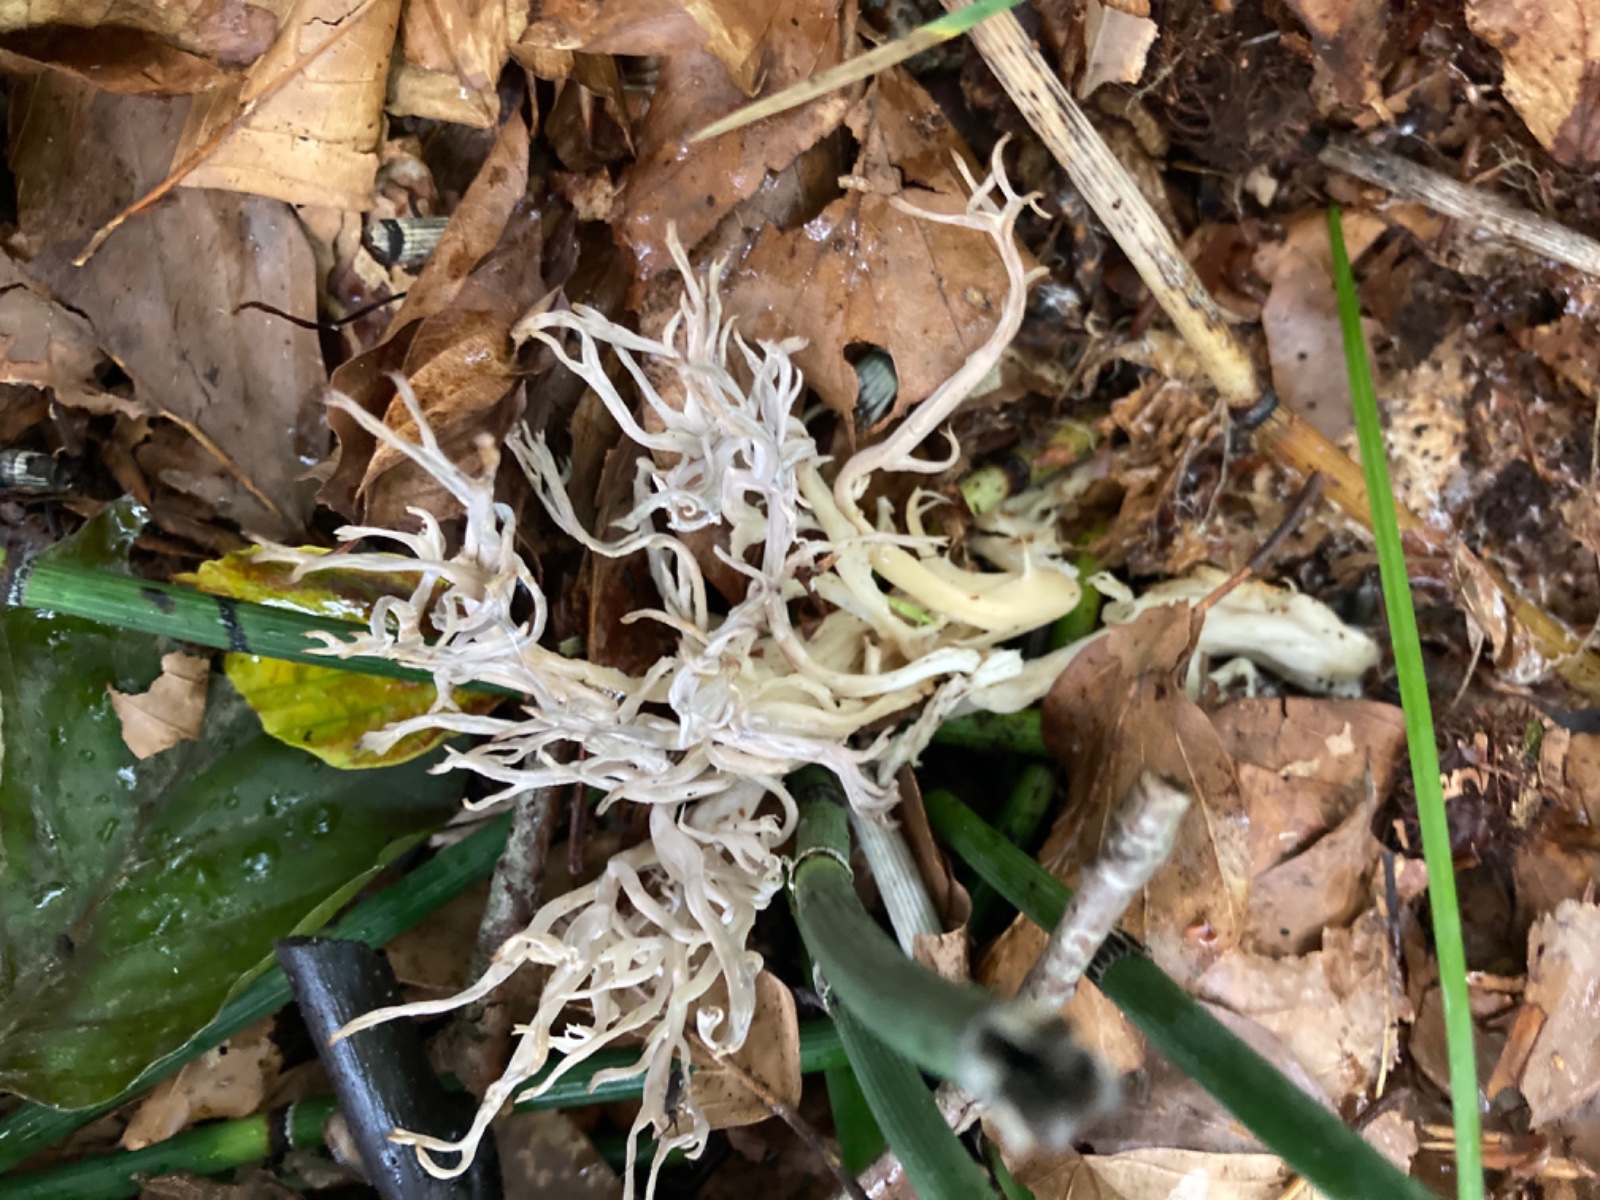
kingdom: Fungi
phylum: Basidiomycota
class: Agaricomycetes
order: Cantharellales
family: Hydnaceae
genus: Clavulina
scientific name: Clavulina
